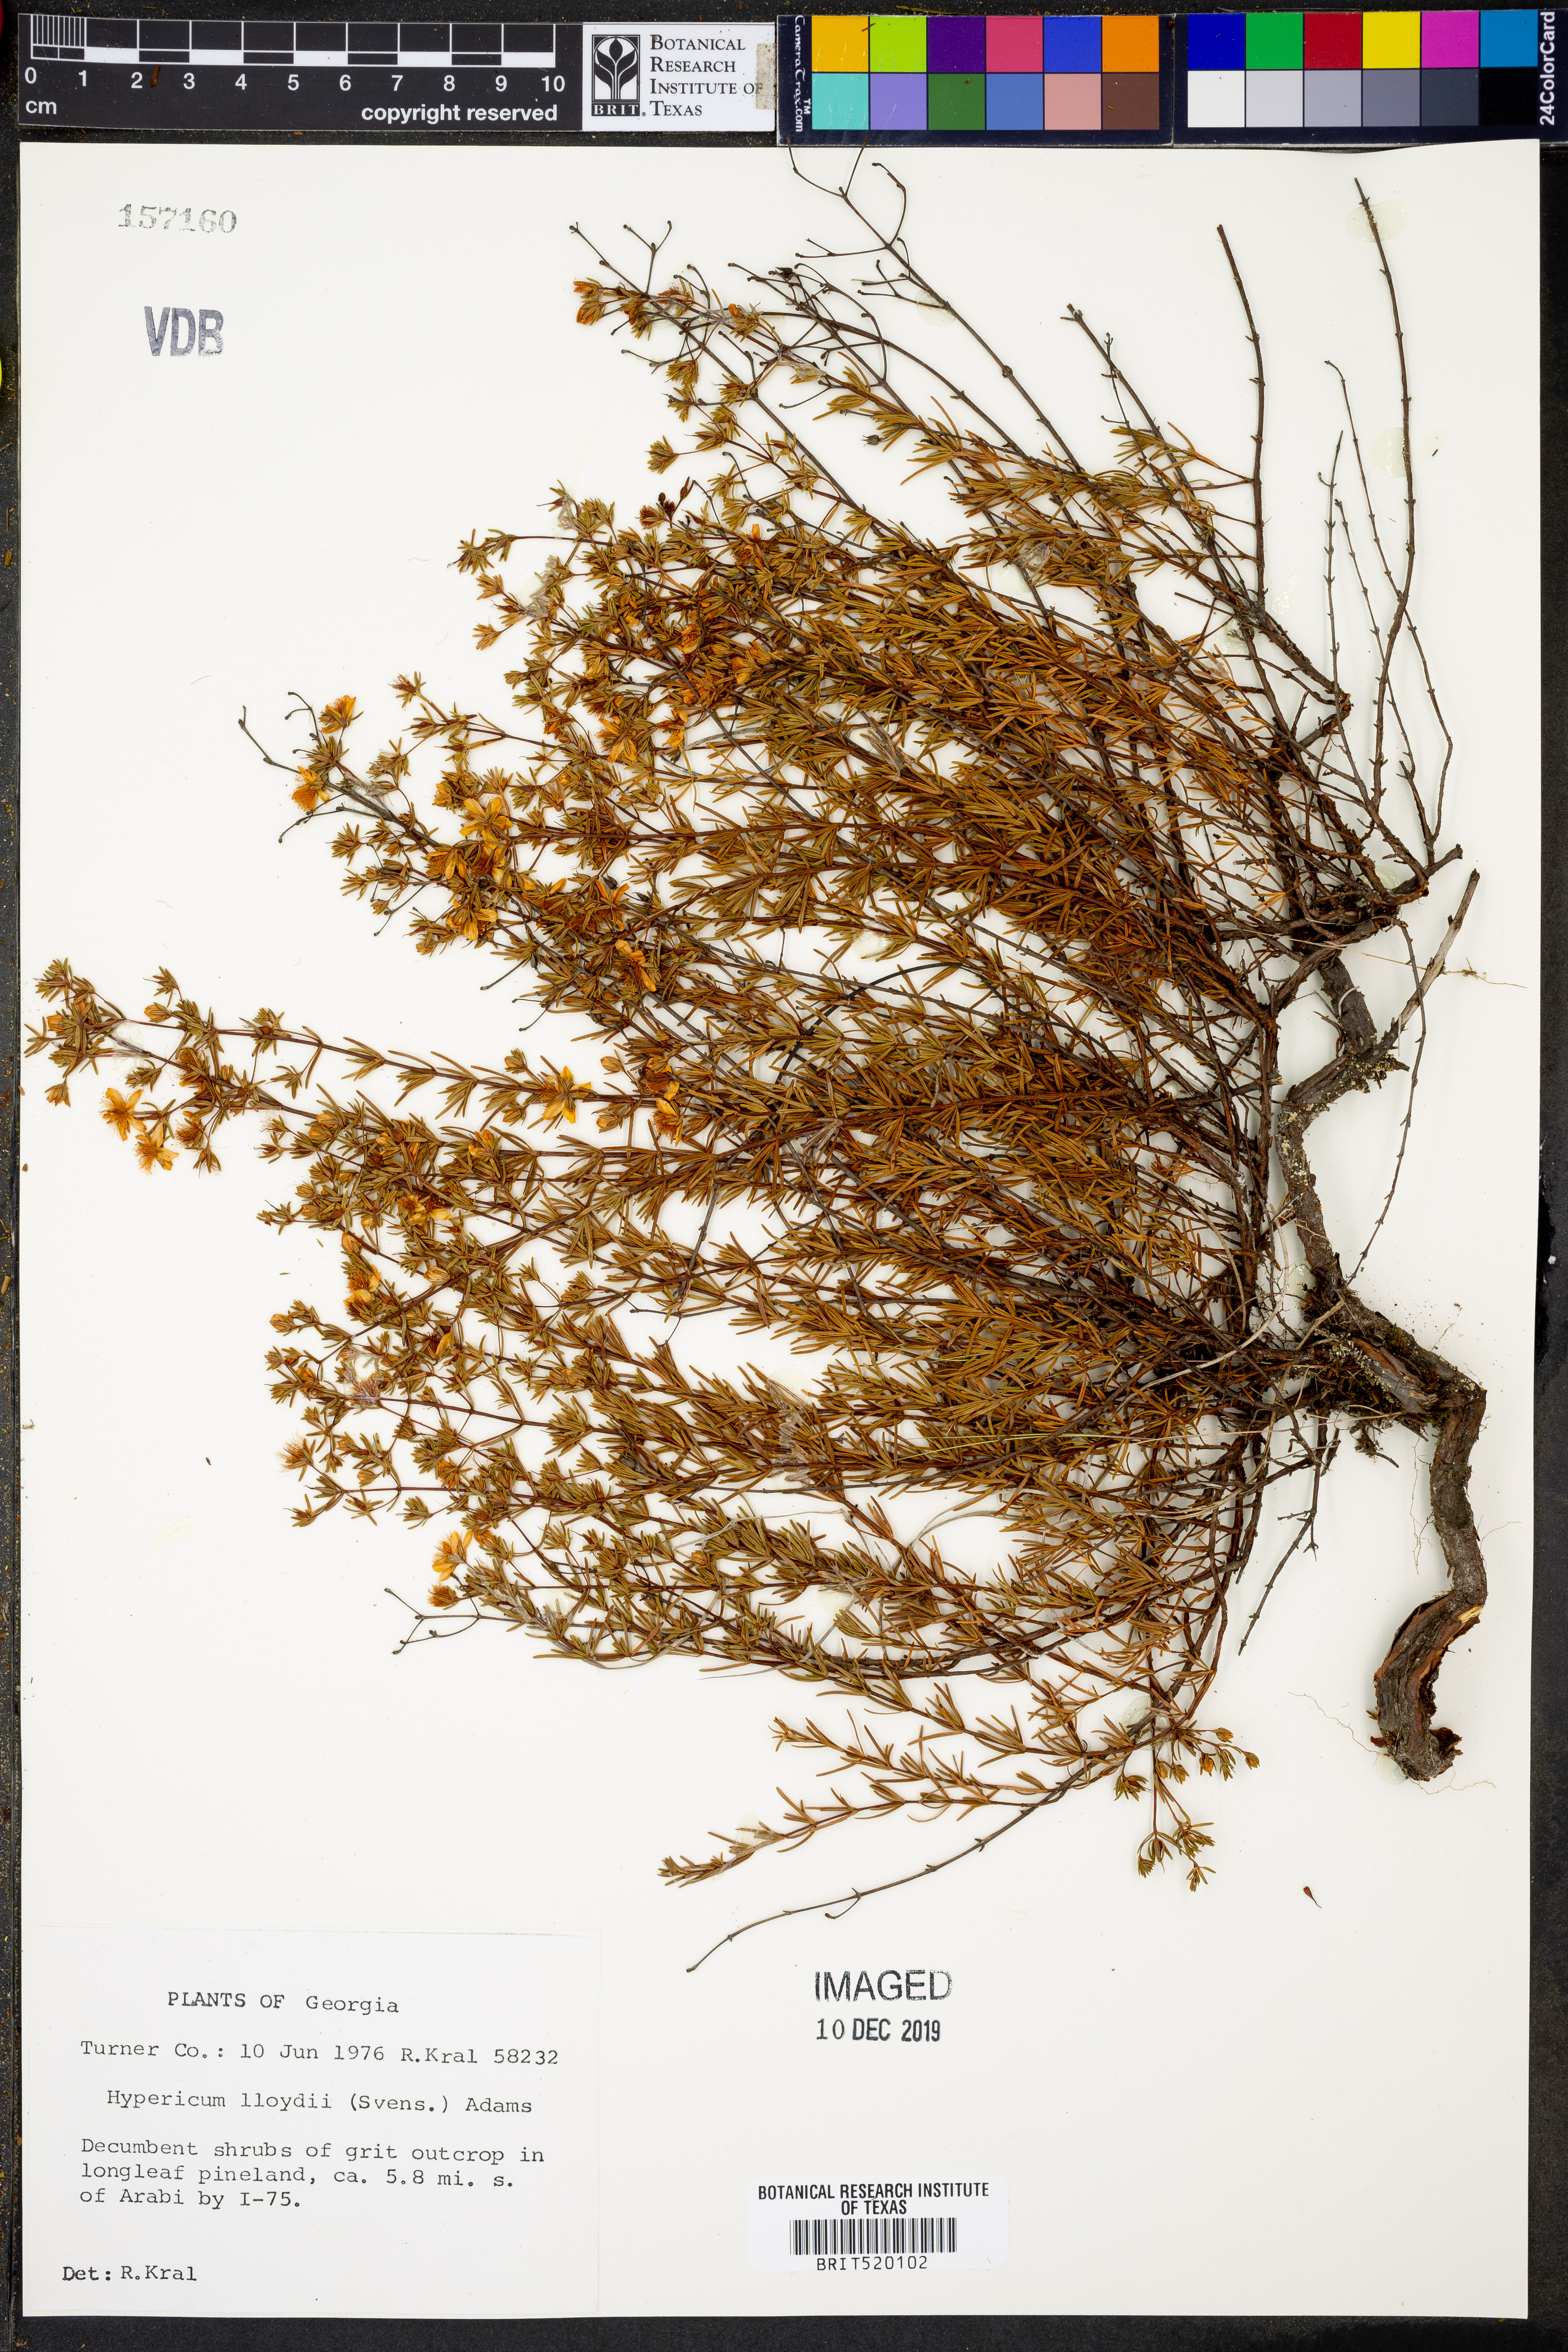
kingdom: Plantae
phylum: Tracheophyta
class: Magnoliopsida
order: Malpighiales
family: Hypericaceae
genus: Hypericum
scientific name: Hypericum lloydii
